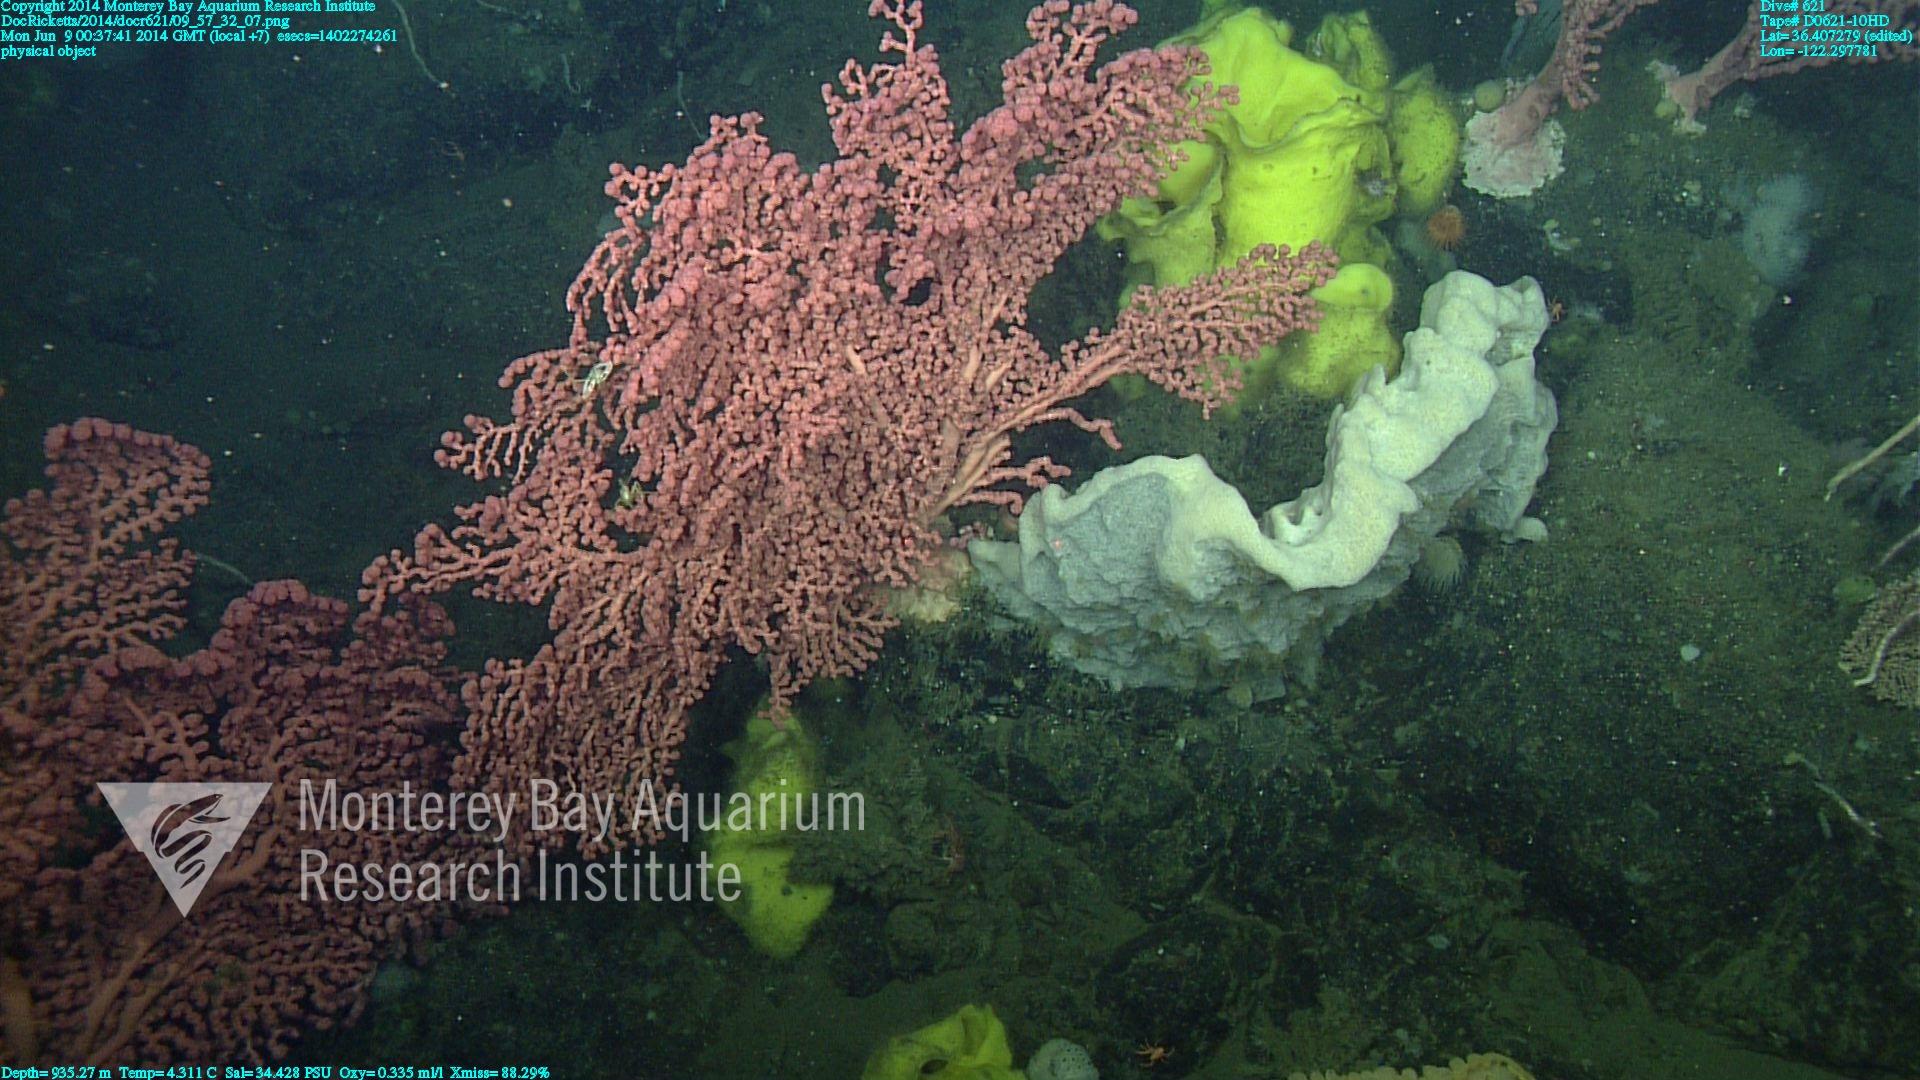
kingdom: Animalia
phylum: Cnidaria
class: Anthozoa
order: Scleralcyonacea
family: Coralliidae
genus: Paragorgia
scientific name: Paragorgia arborea
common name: Bubble gum coral
